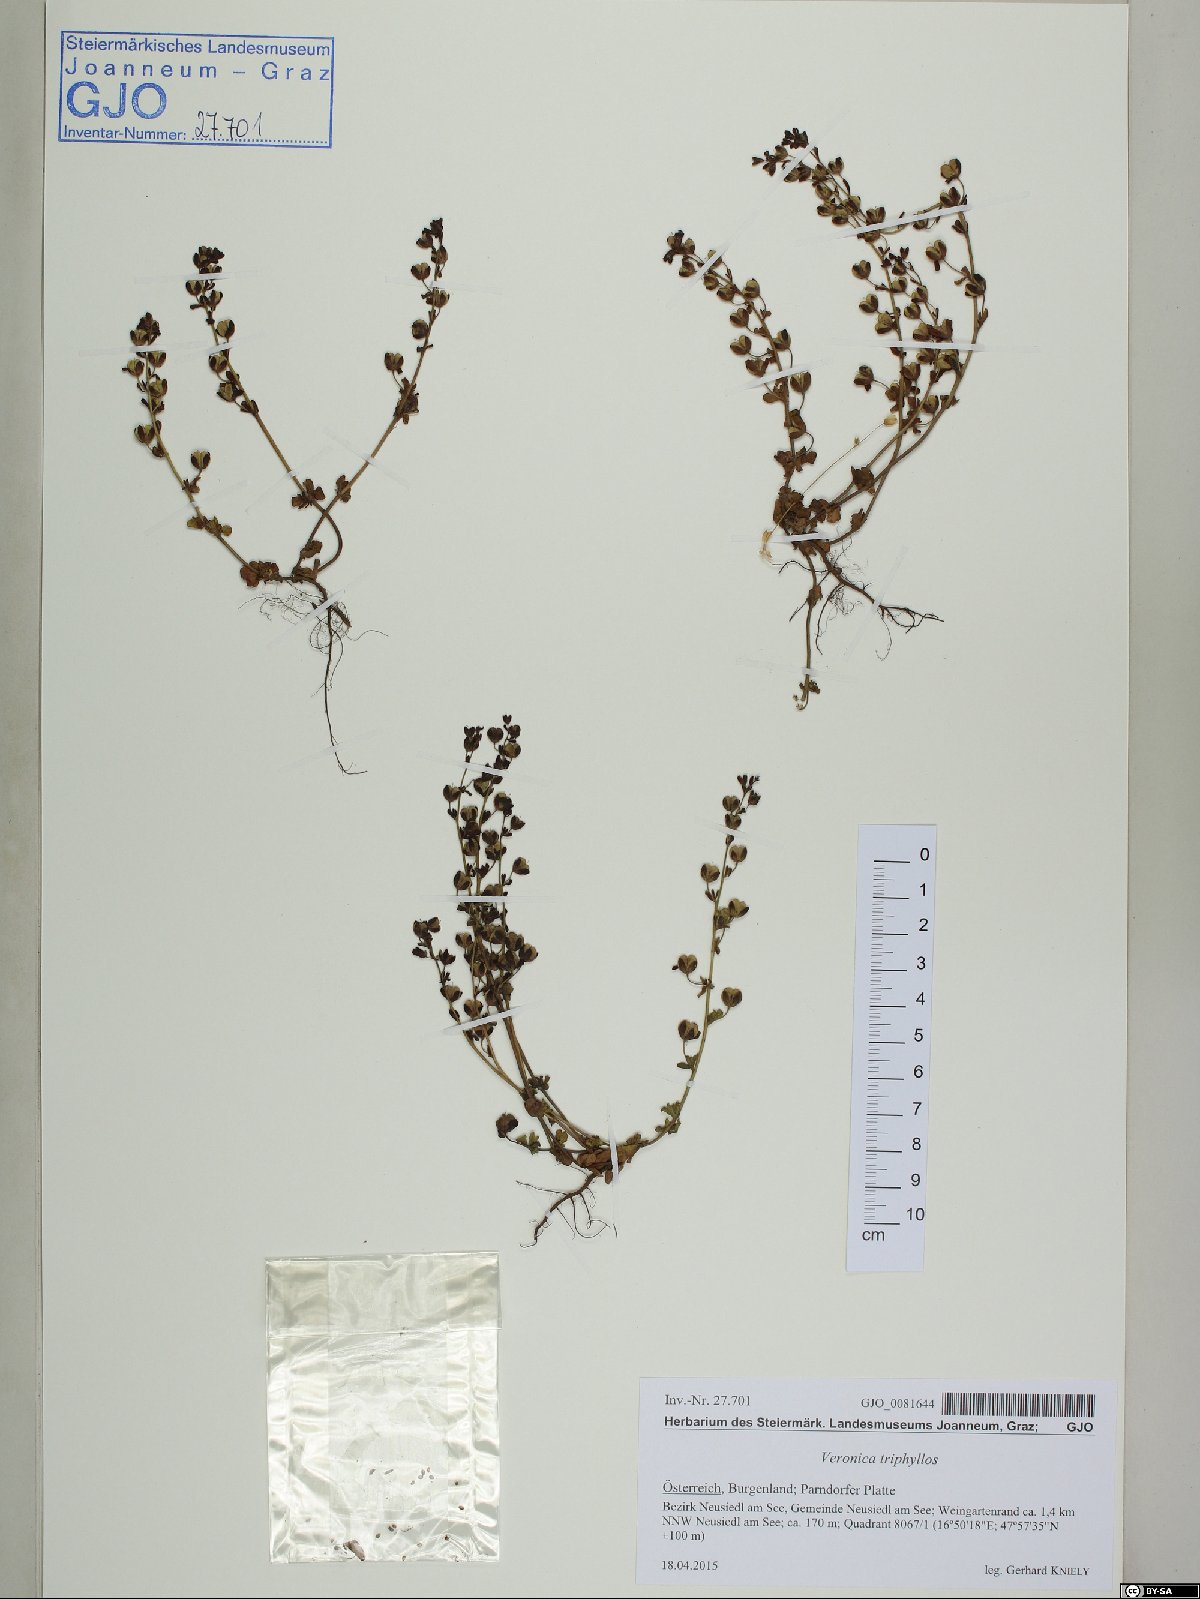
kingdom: Plantae
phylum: Tracheophyta
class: Magnoliopsida
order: Lamiales
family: Plantaginaceae
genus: Veronica
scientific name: Veronica triphyllos
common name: Fingered speedwell
